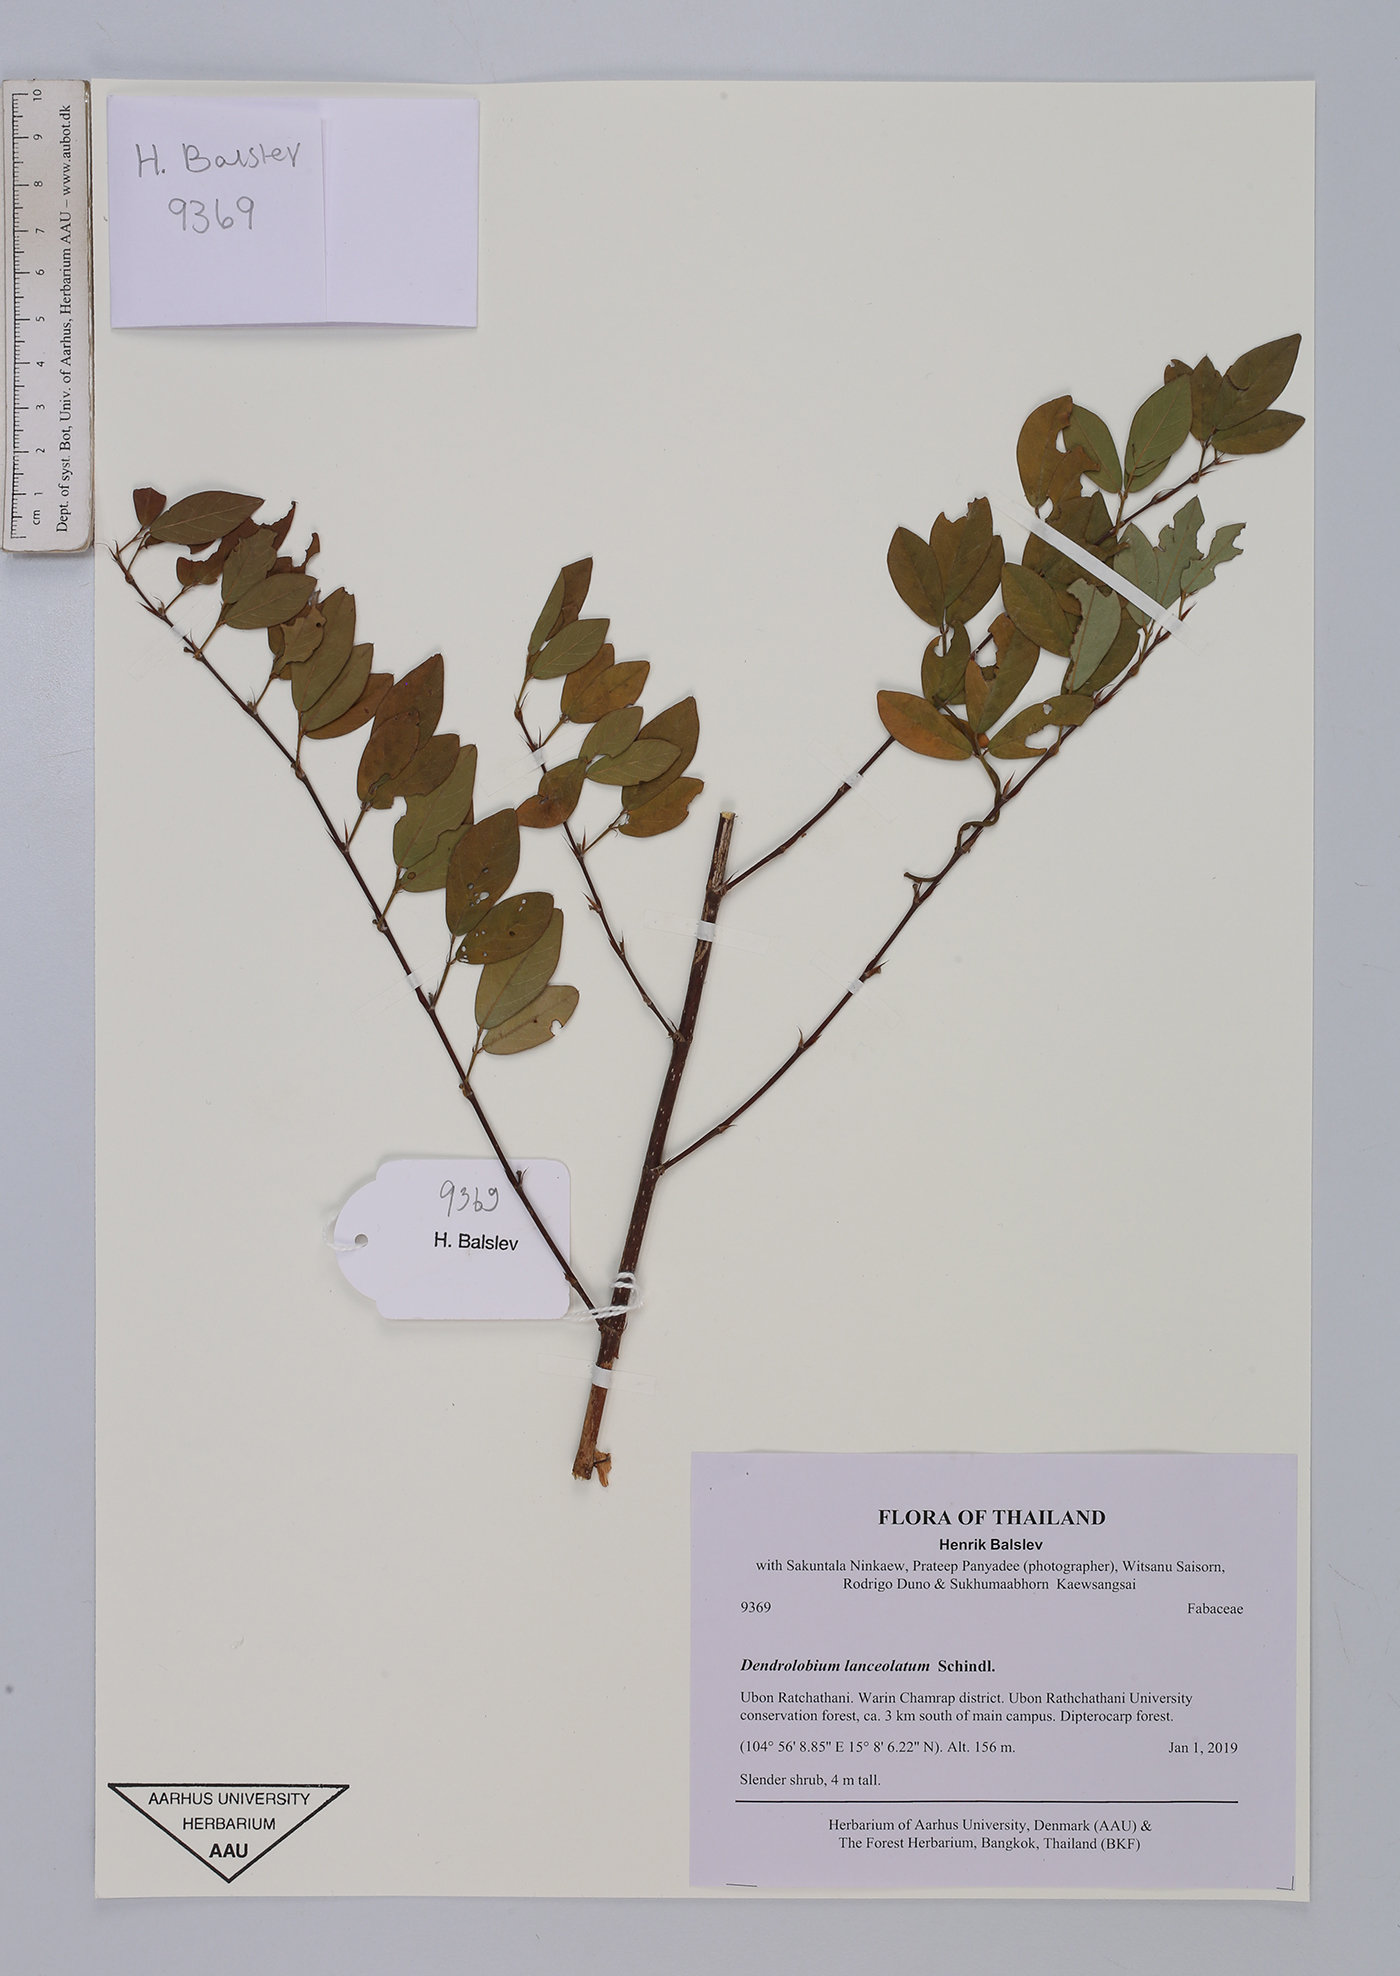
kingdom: Plantae
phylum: Tracheophyta
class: Magnoliopsida
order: Fabales
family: Fabaceae
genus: Dendrolobium
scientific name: Dendrolobium lanceolatum
